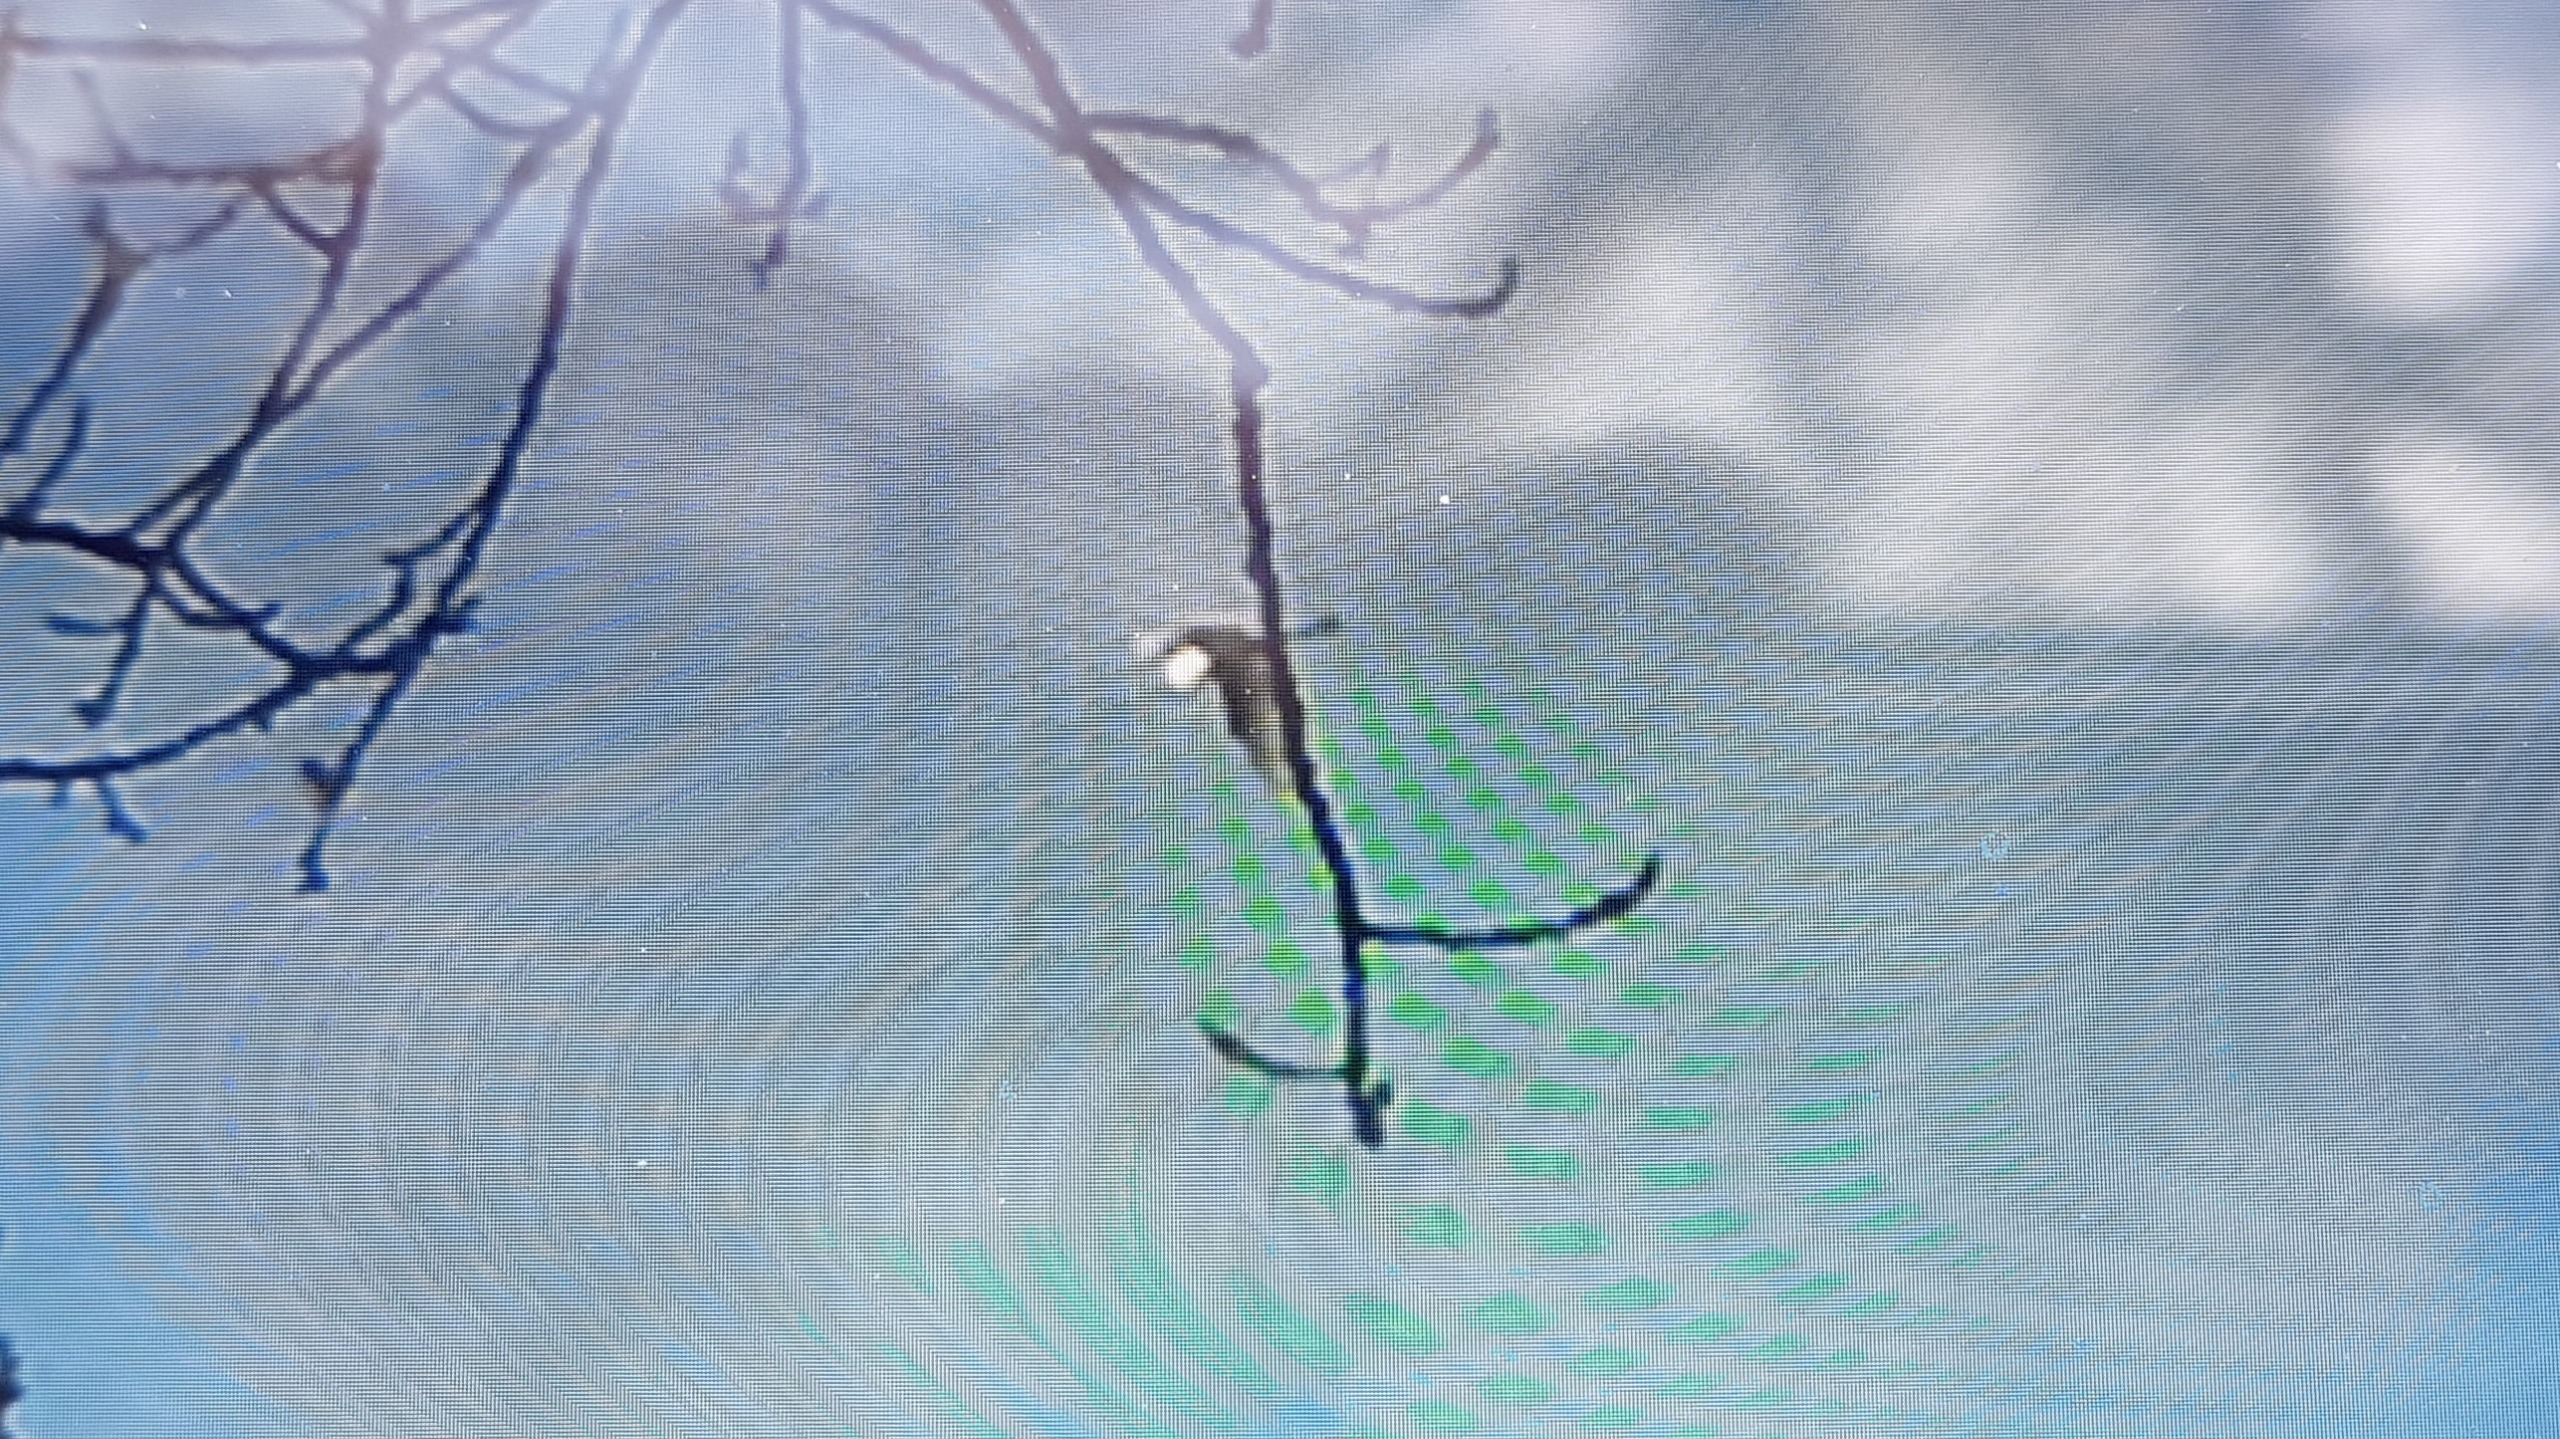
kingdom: Animalia
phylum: Chordata
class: Aves
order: Pelecaniformes
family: Ardeidae
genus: Ardea
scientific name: Ardea alba
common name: Sølvhejre
